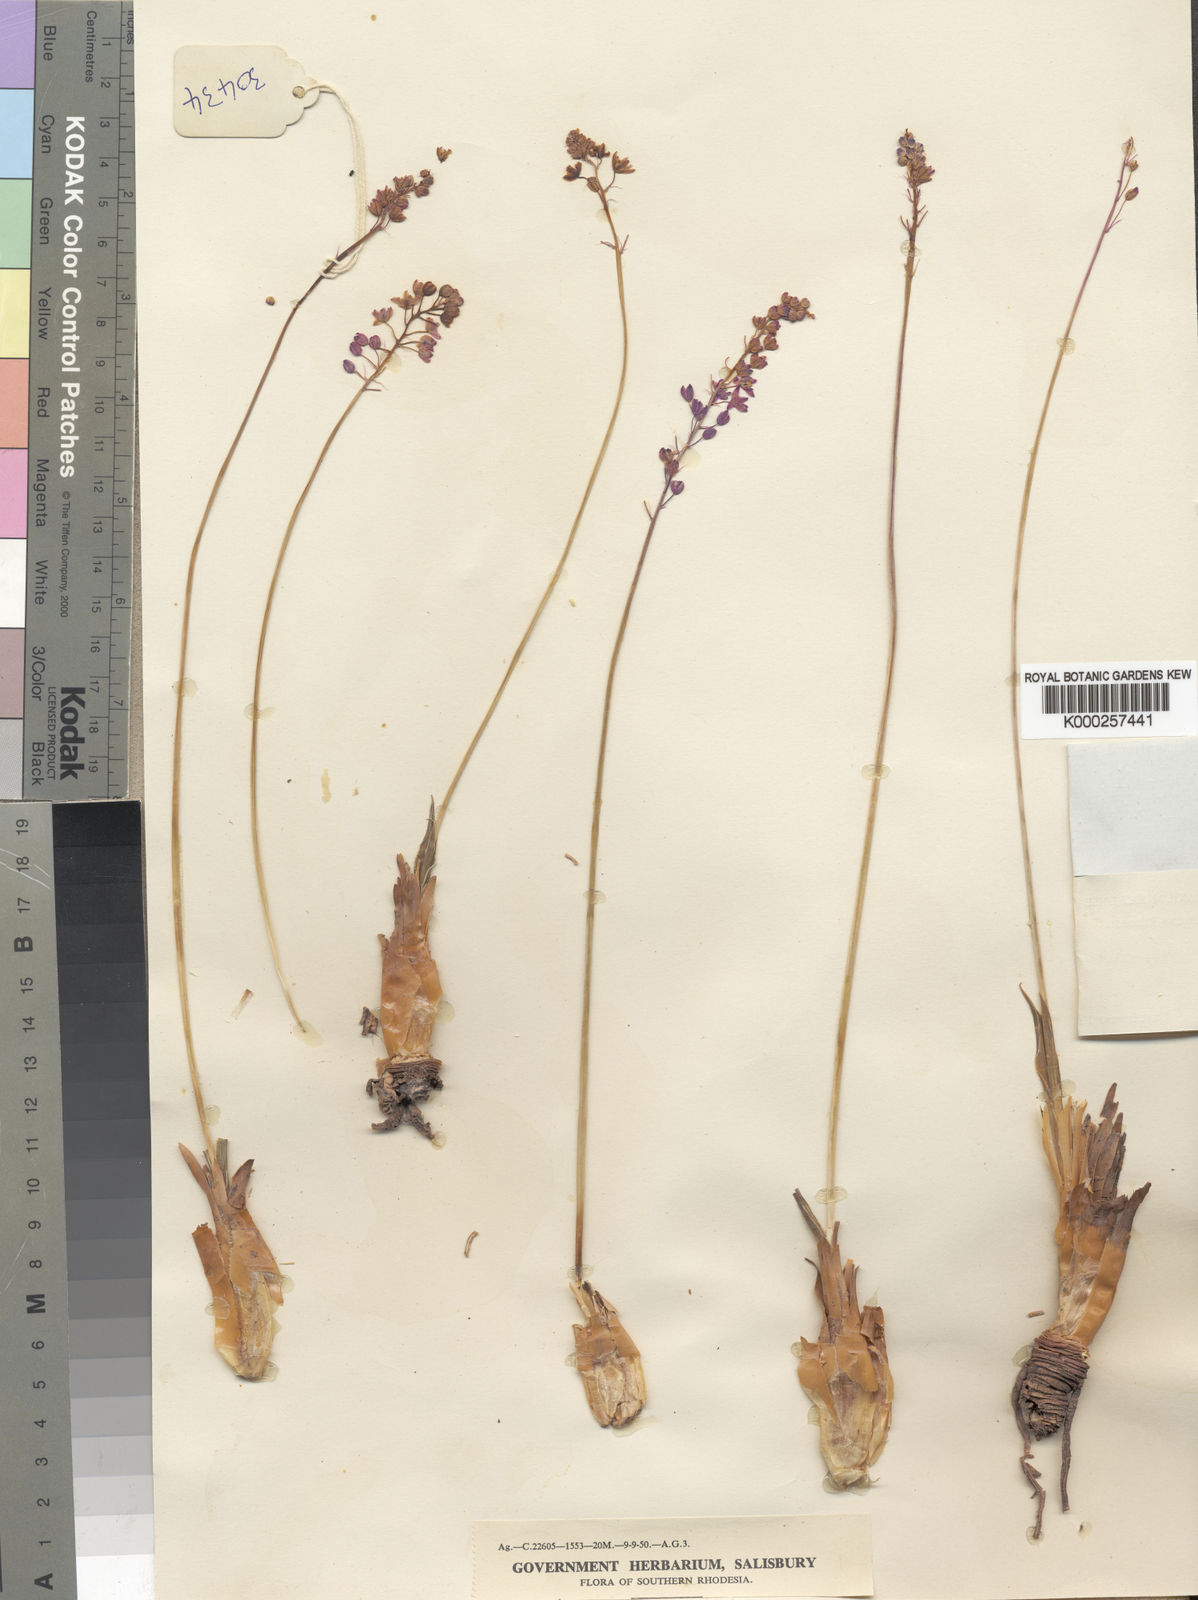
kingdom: Plantae
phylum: Tracheophyta
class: Liliopsida
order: Asparagales
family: Asparagaceae
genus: Merwilla
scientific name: Merwilla plumbea
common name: Blue-squill
